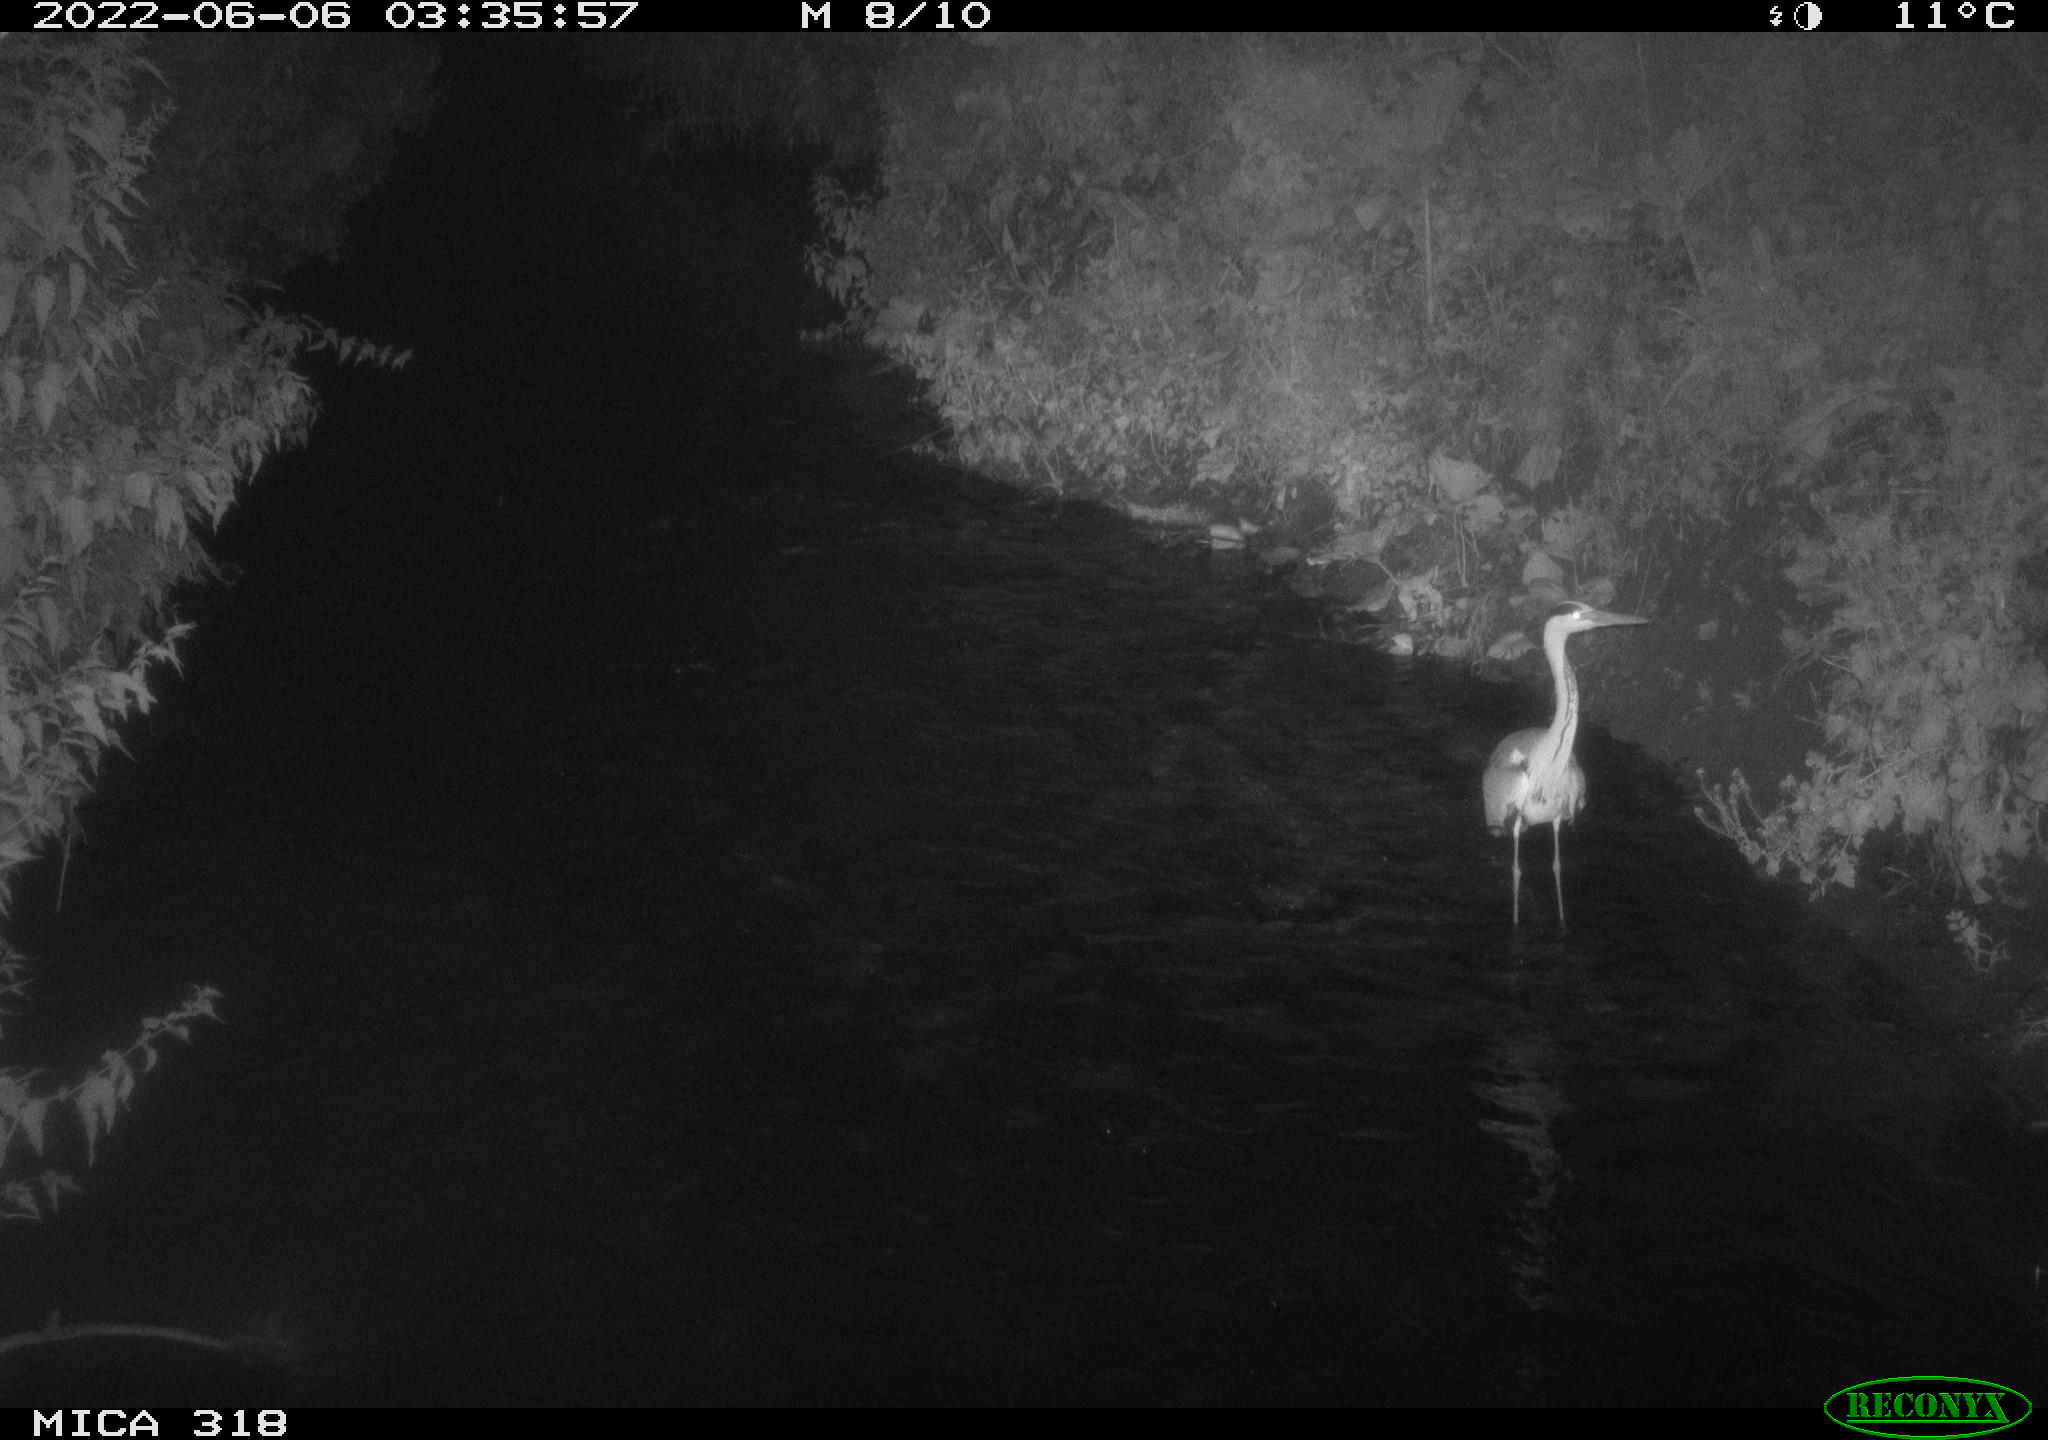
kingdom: Animalia
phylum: Chordata
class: Aves
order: Pelecaniformes
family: Ardeidae
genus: Ardea
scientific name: Ardea cinerea
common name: Grey heron
